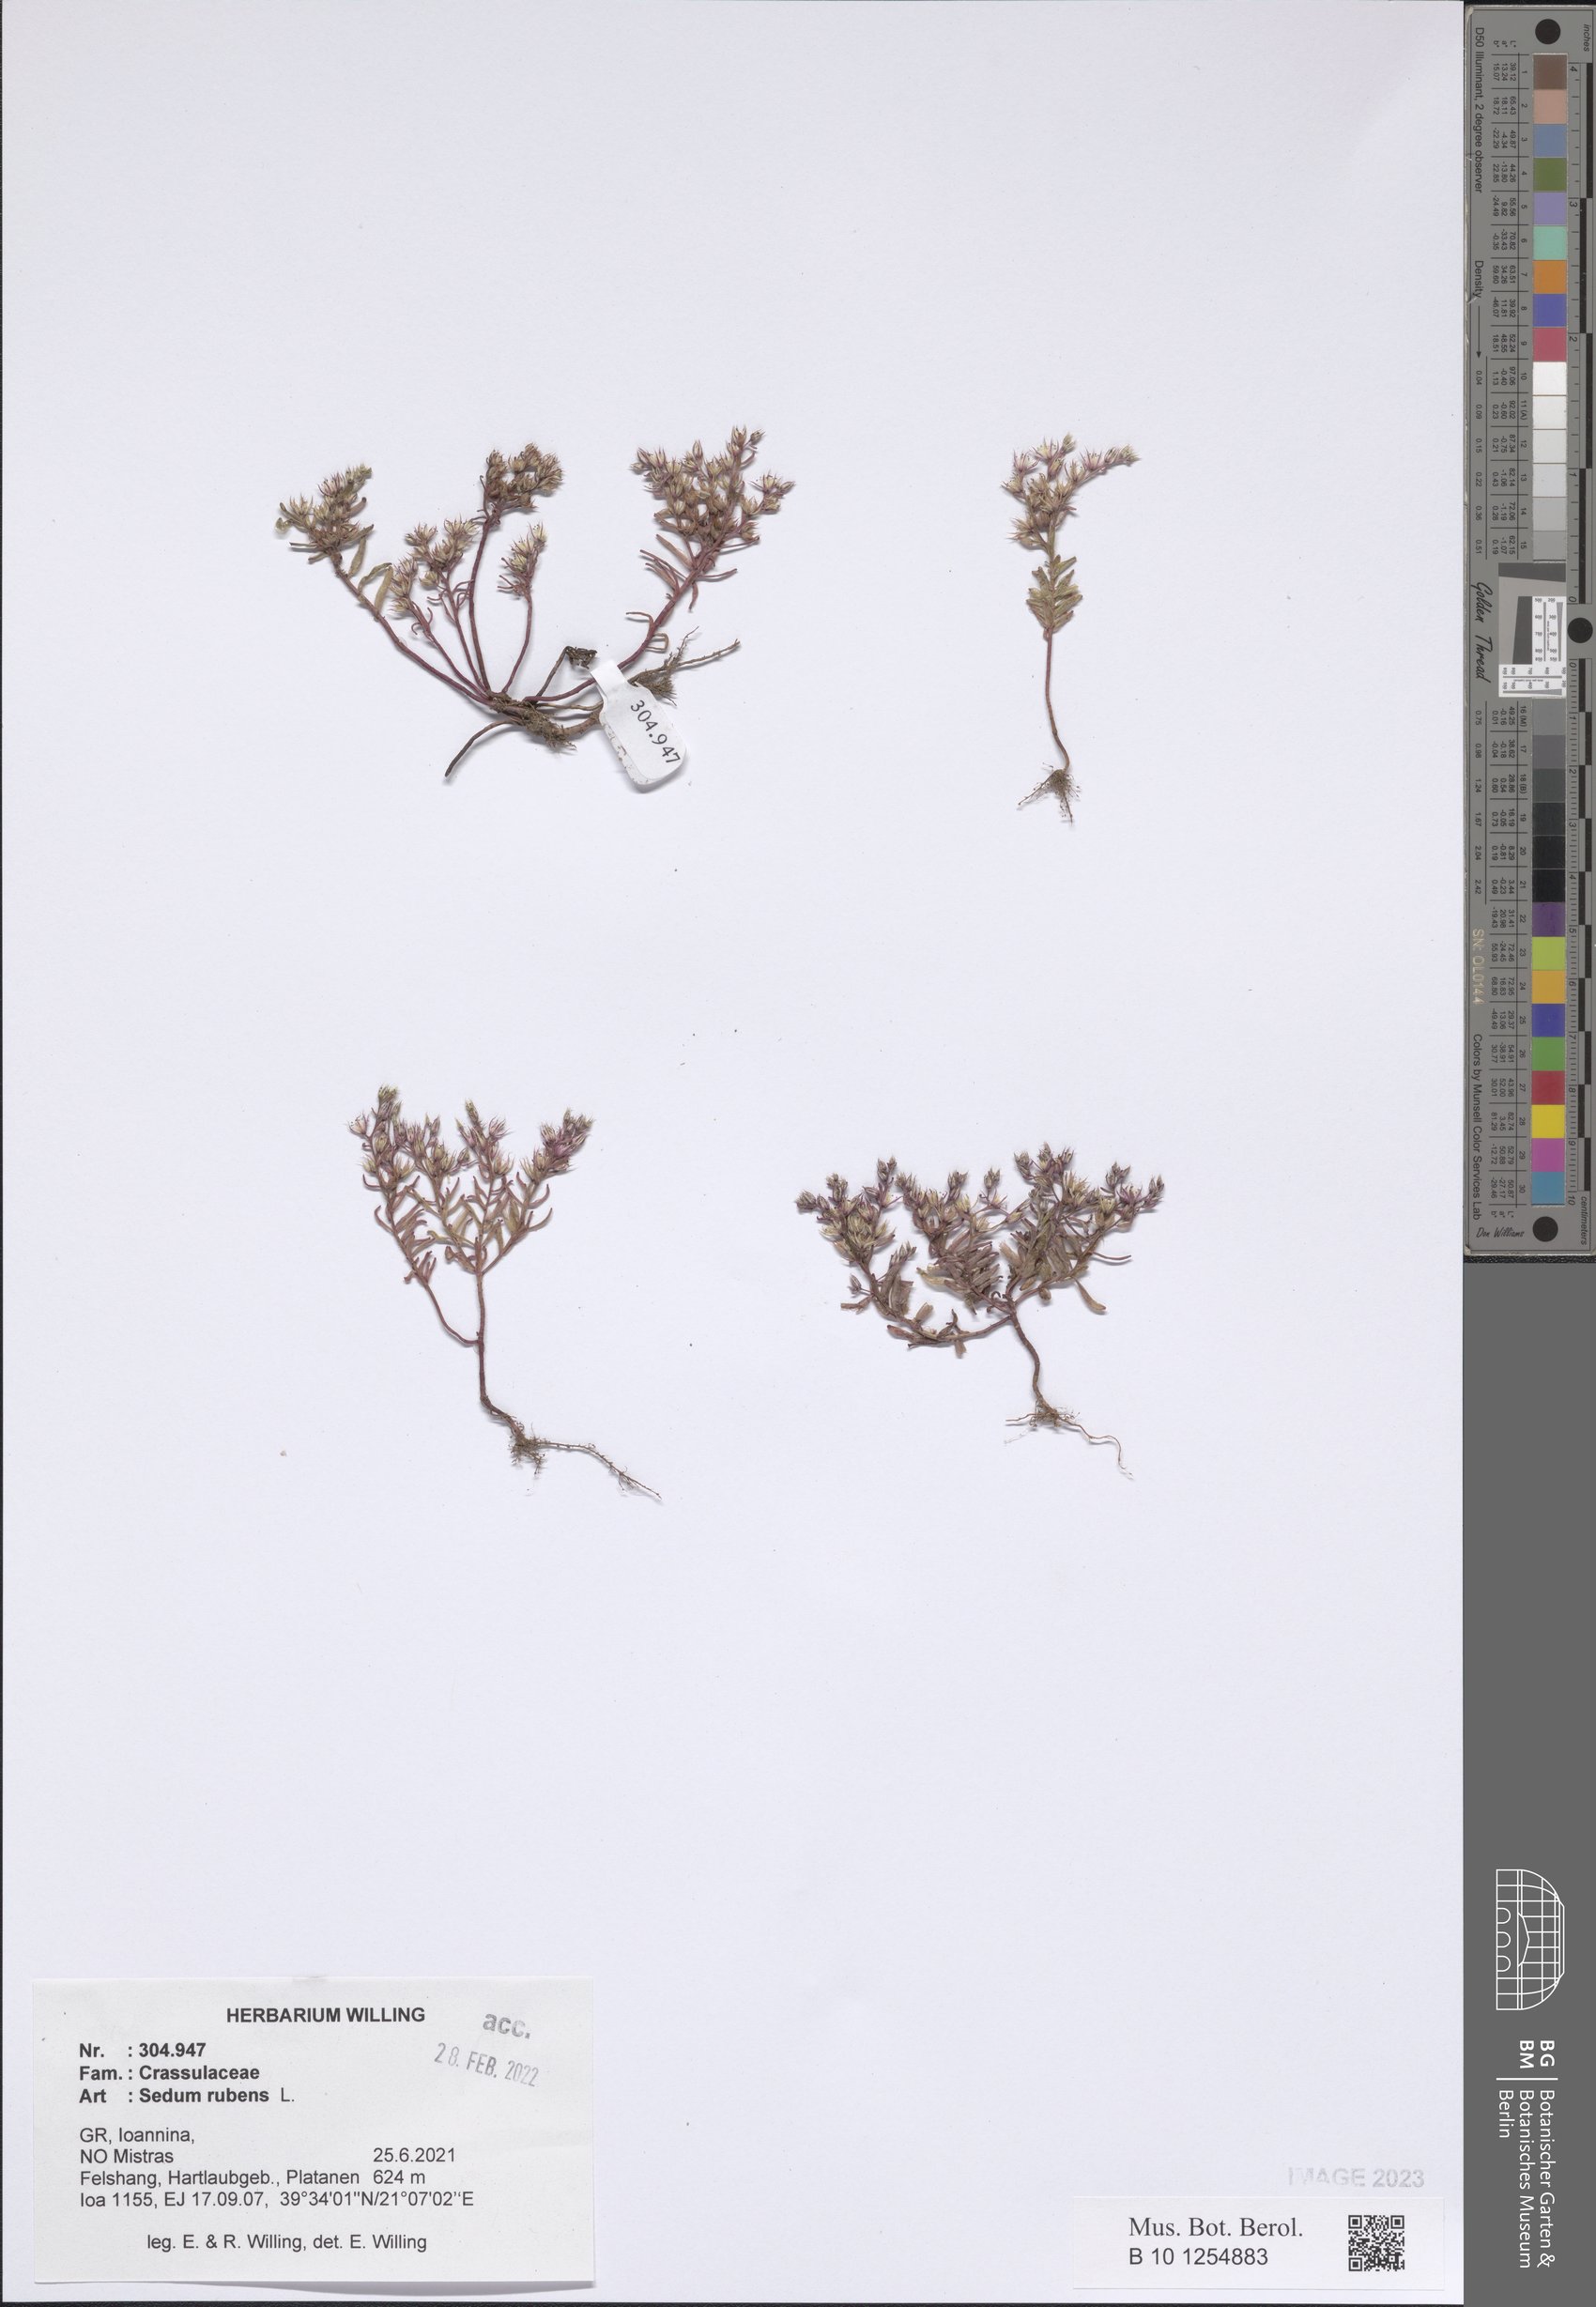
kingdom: Plantae
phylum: Tracheophyta
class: Magnoliopsida
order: Saxifragales
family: Crassulaceae
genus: Sedum
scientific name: Sedum rubens
